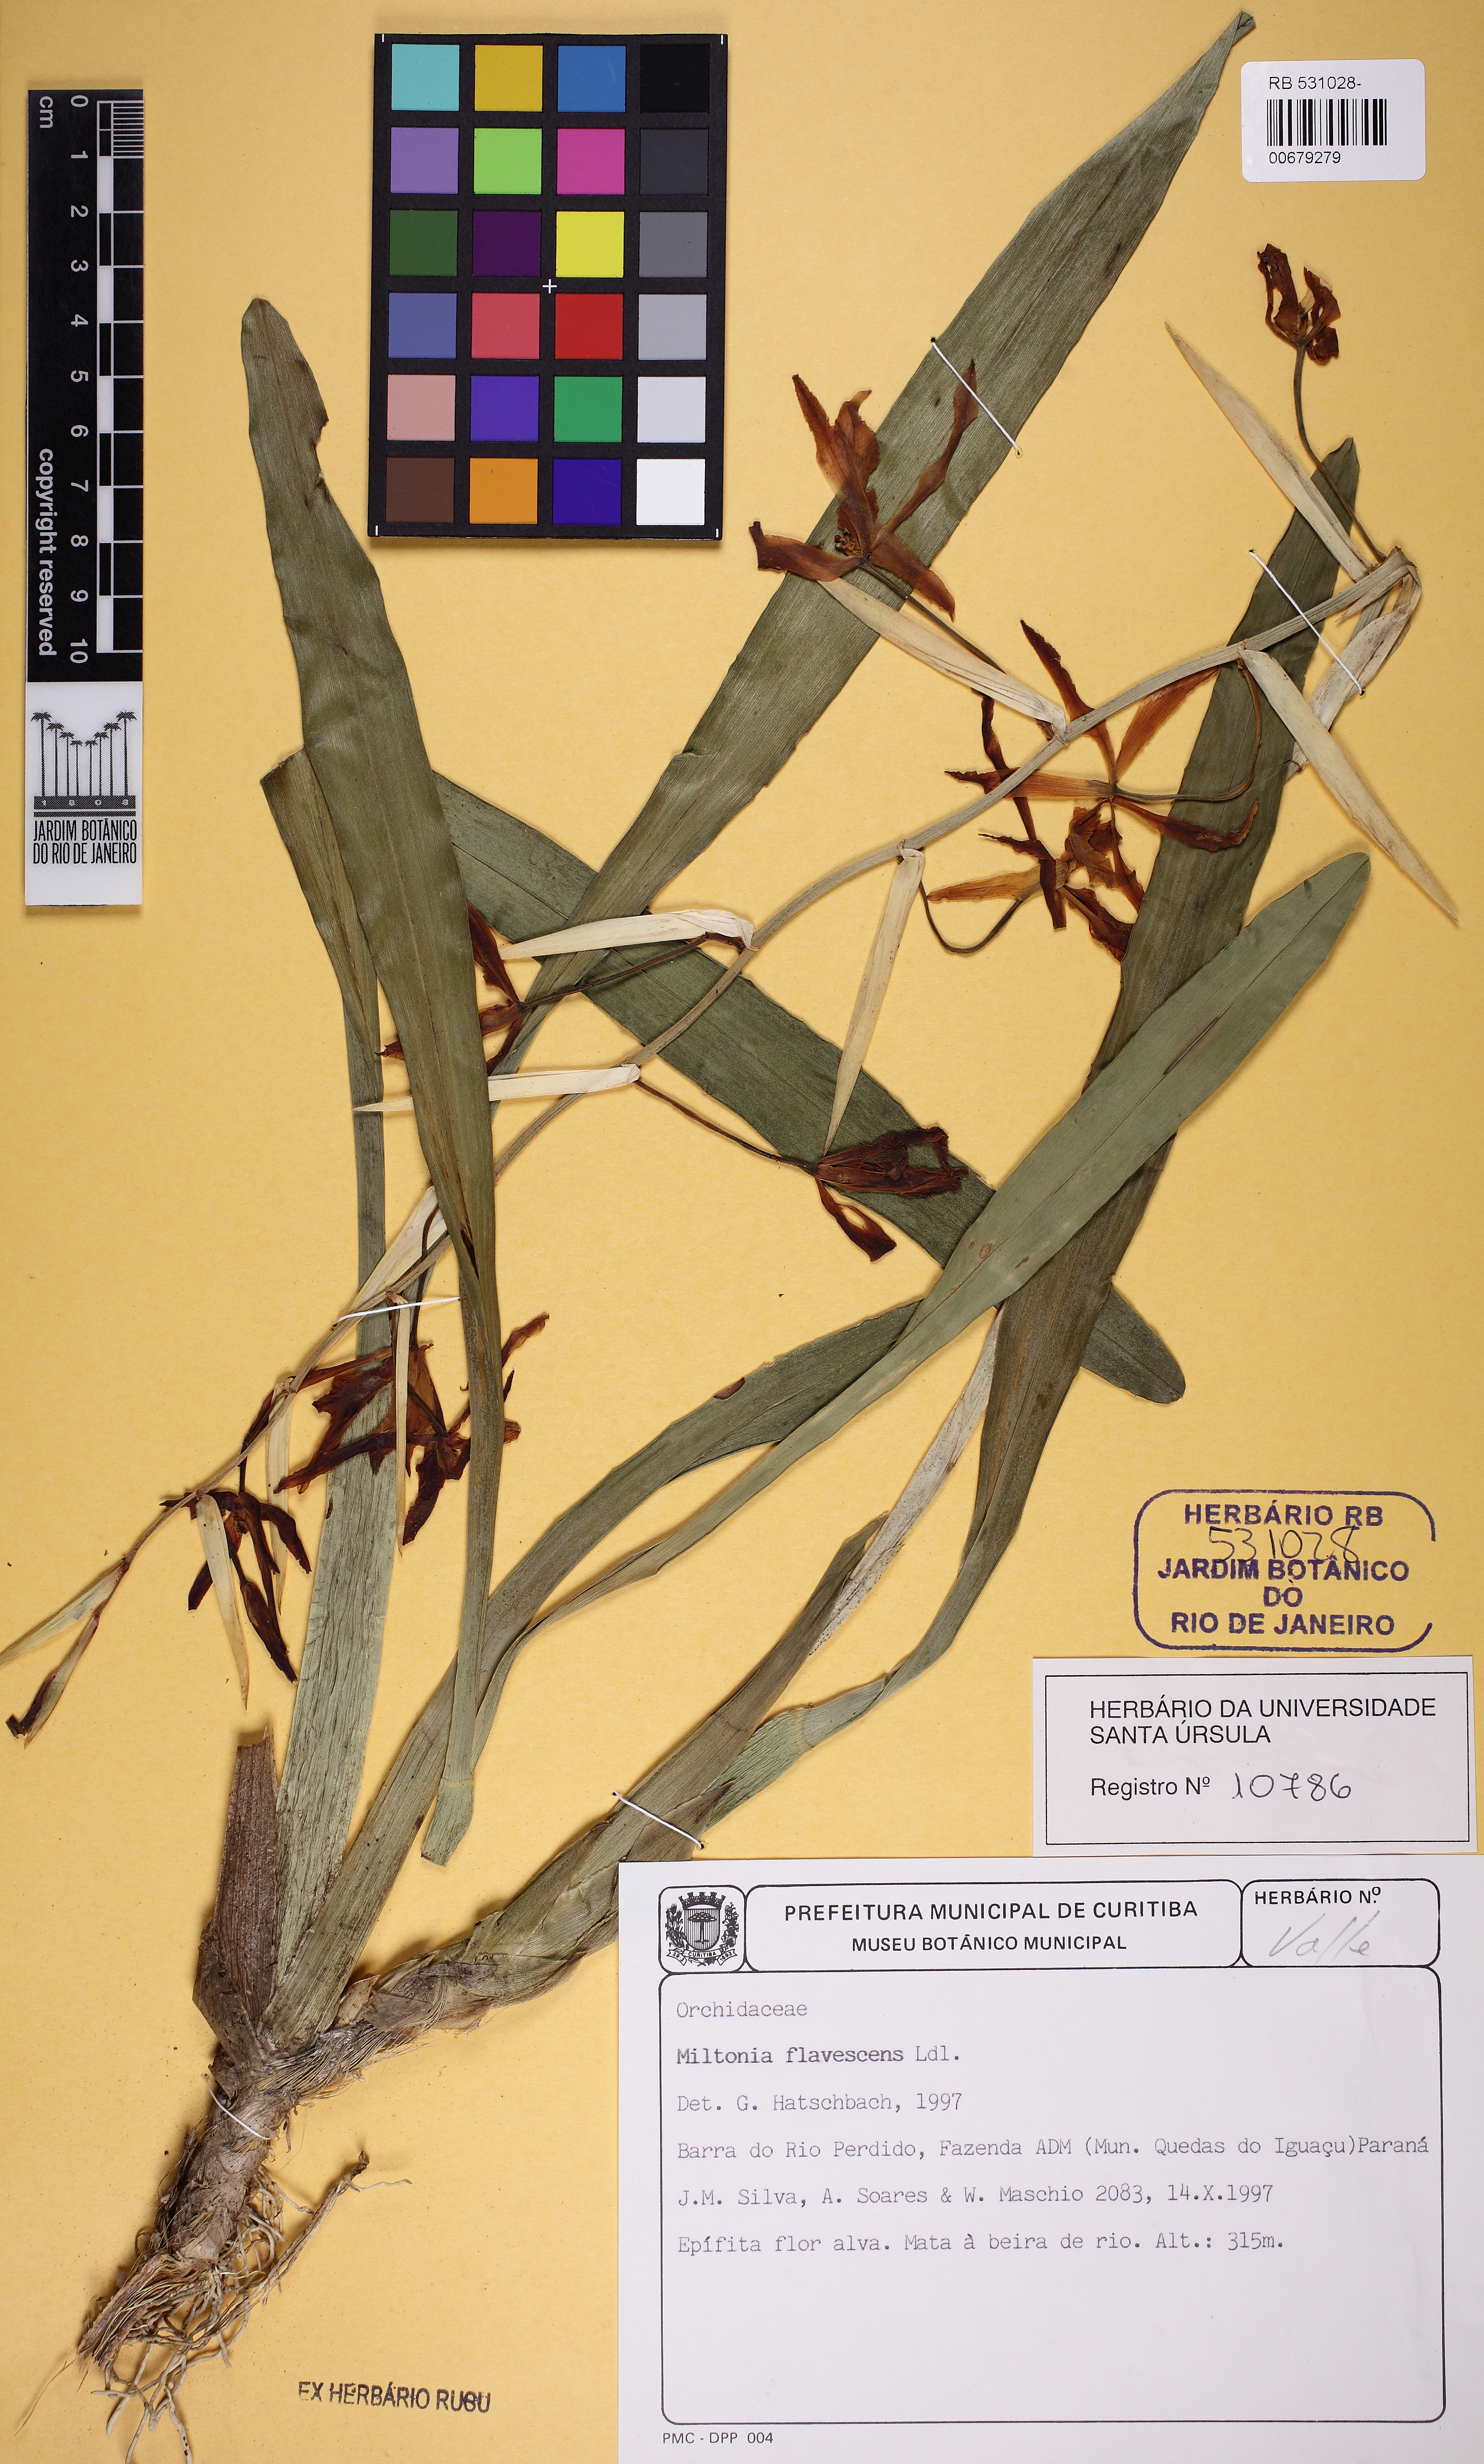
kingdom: Plantae
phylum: Tracheophyta
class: Liliopsida
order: Asparagales
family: Orchidaceae
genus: Miltonia
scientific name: Miltonia flavescens
